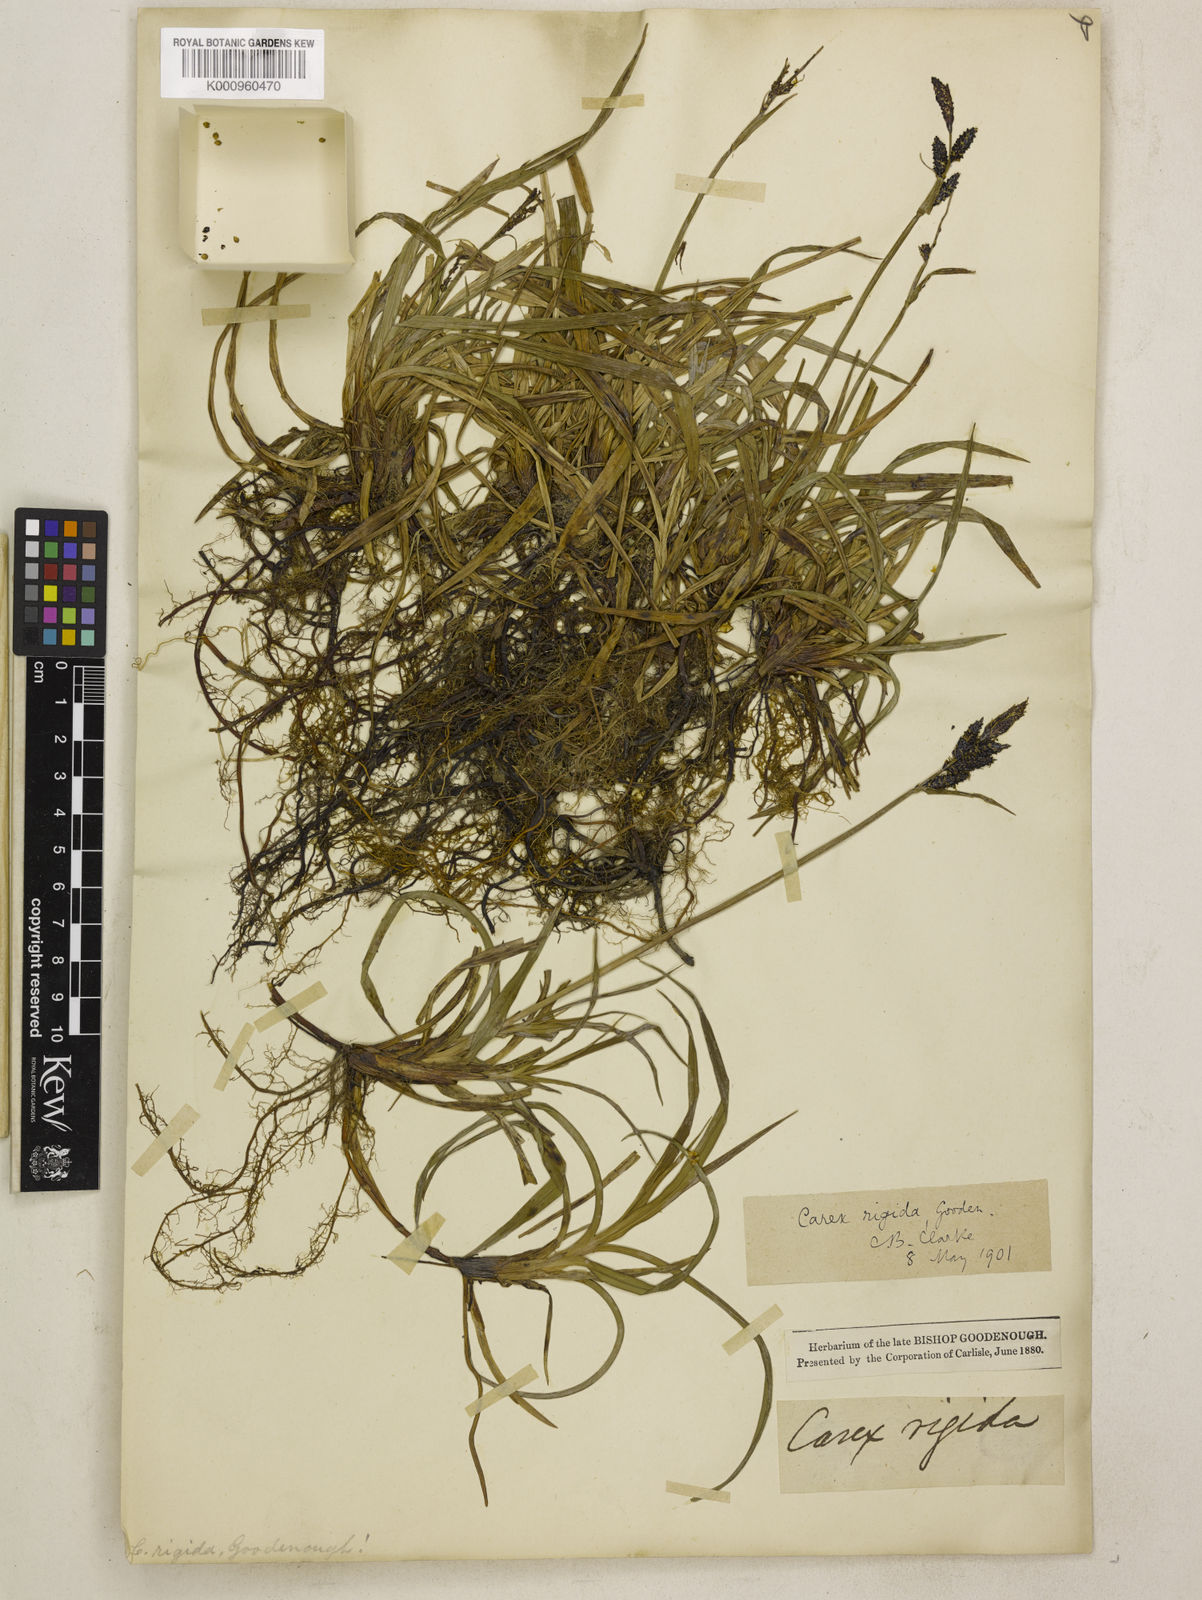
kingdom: Plantae
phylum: Tracheophyta
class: Liliopsida
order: Poales
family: Cyperaceae
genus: Carex
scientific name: Carex bigelowii
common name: Stiff sedge
